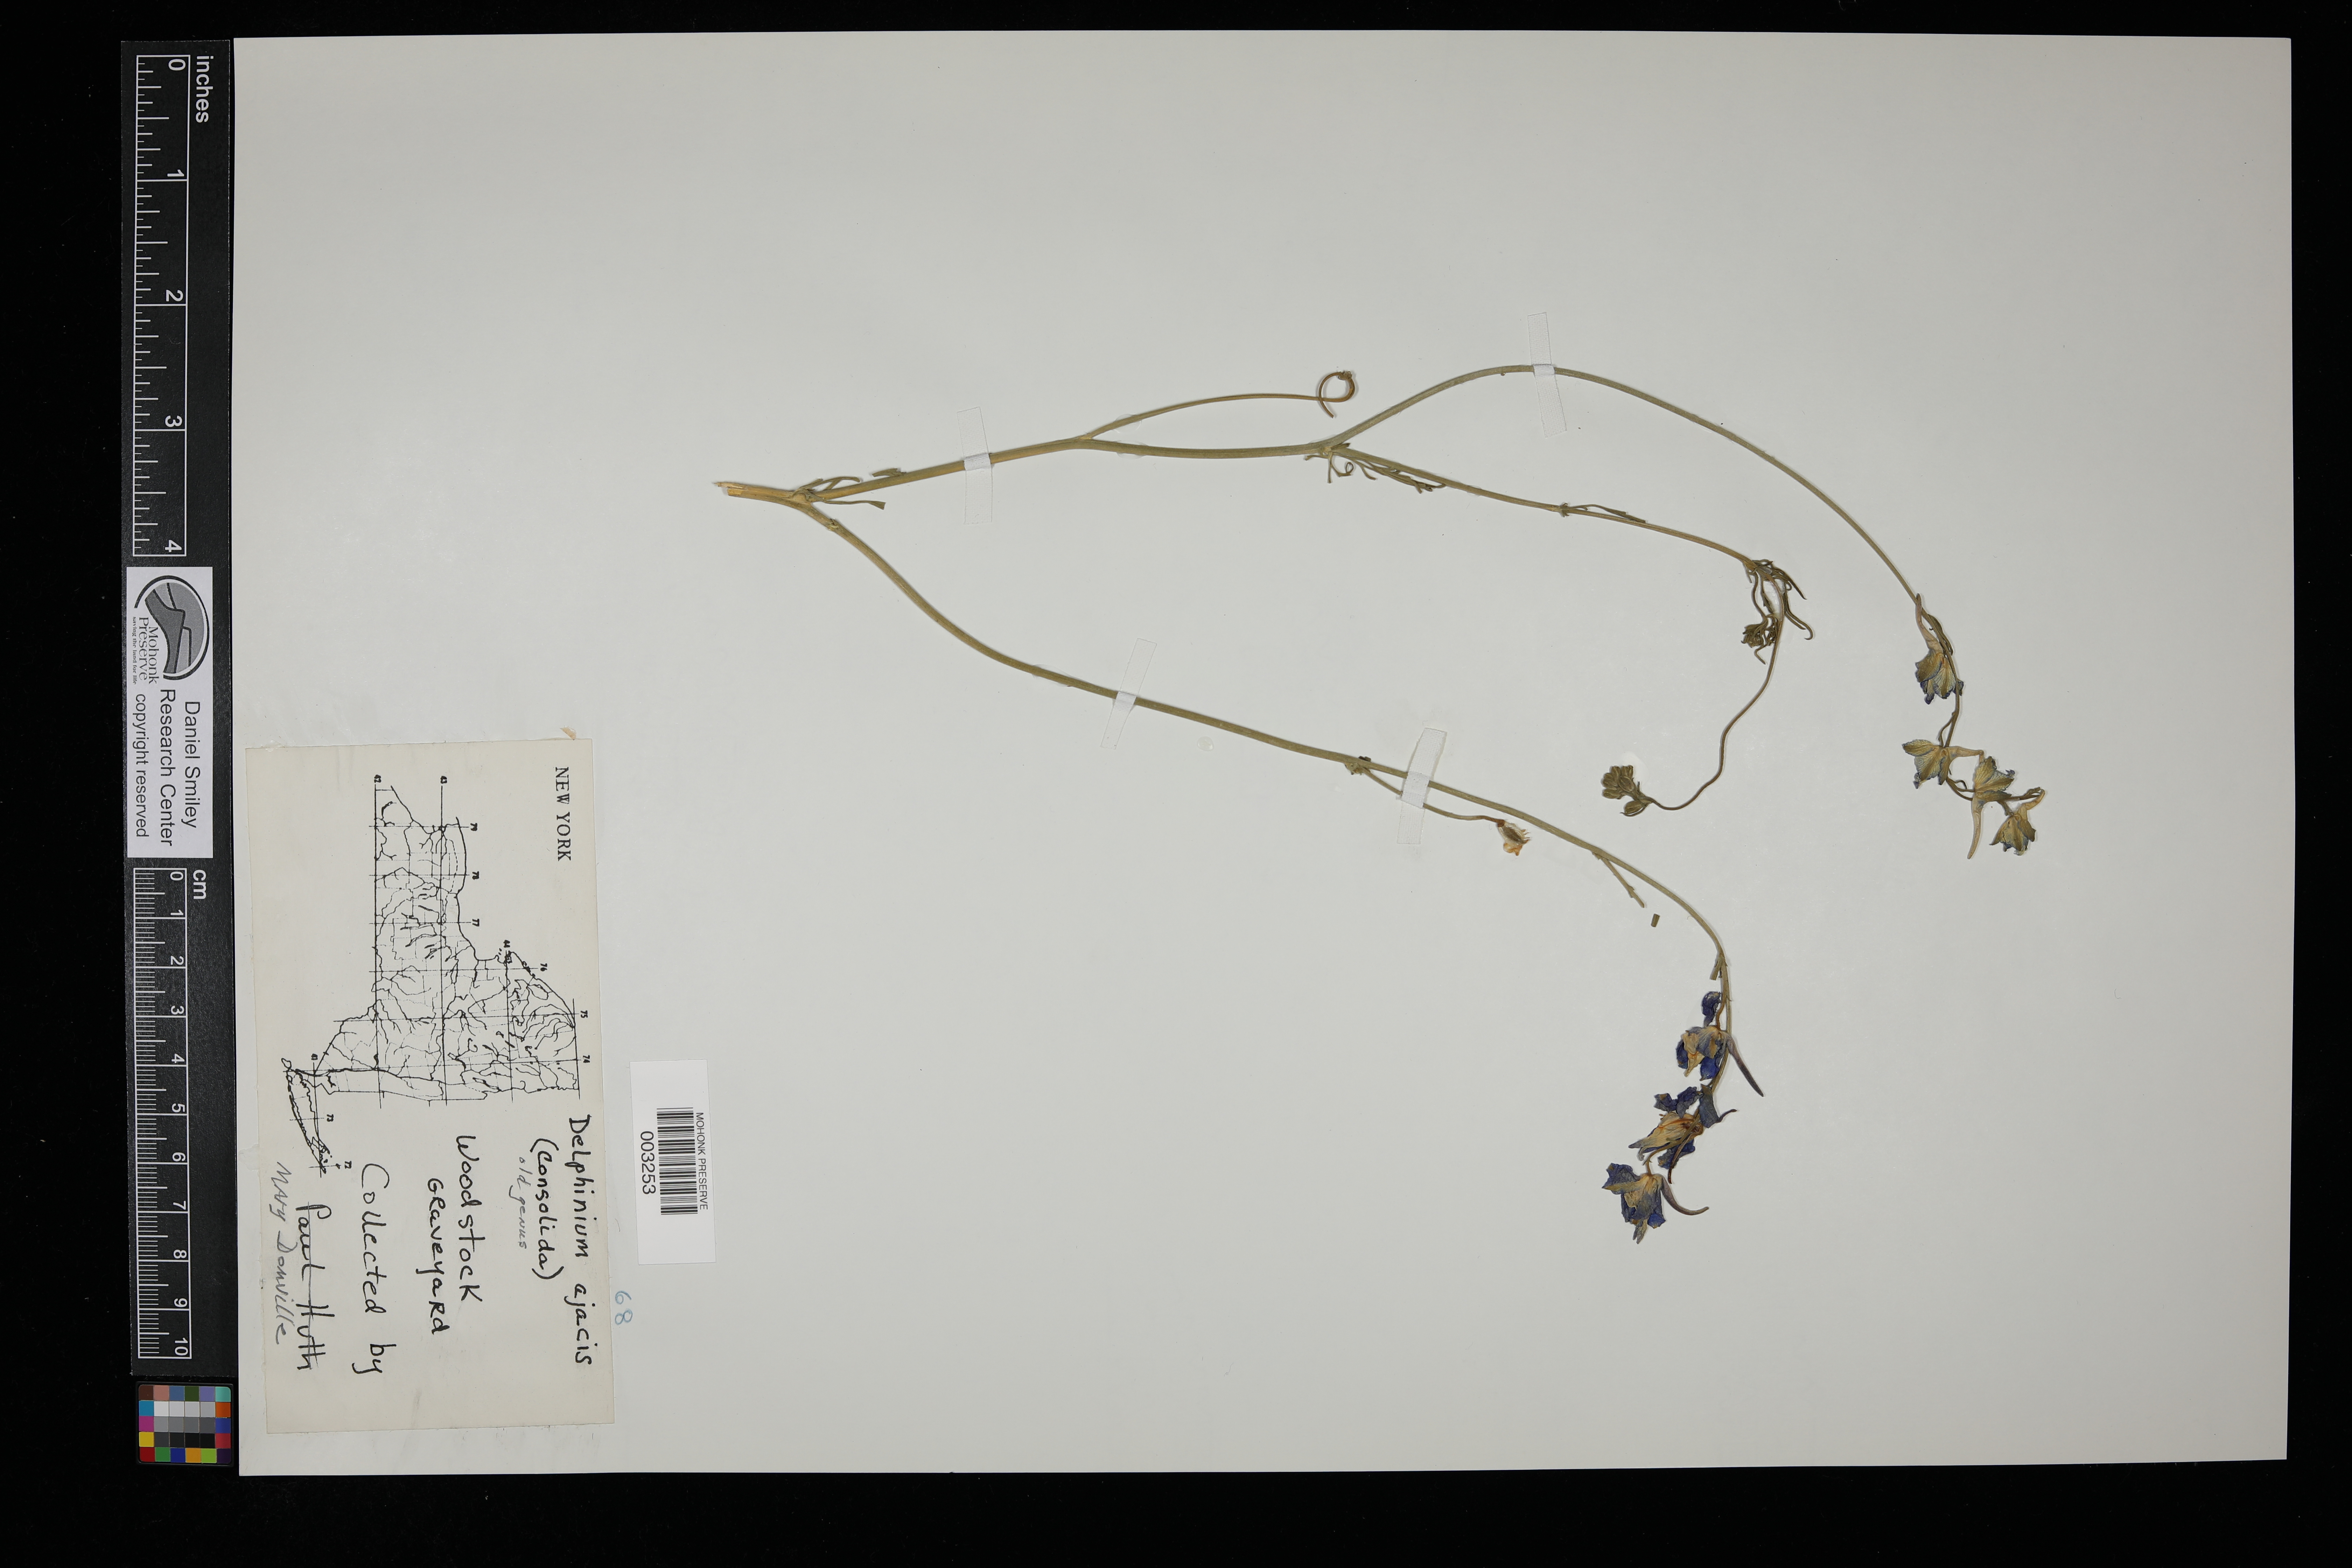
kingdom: Plantae
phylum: Tracheophyta
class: Magnoliopsida
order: Ranunculales
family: Ranunculaceae
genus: Delphinium
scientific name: Delphinium ajacis
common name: Doubtful knight's-spur
